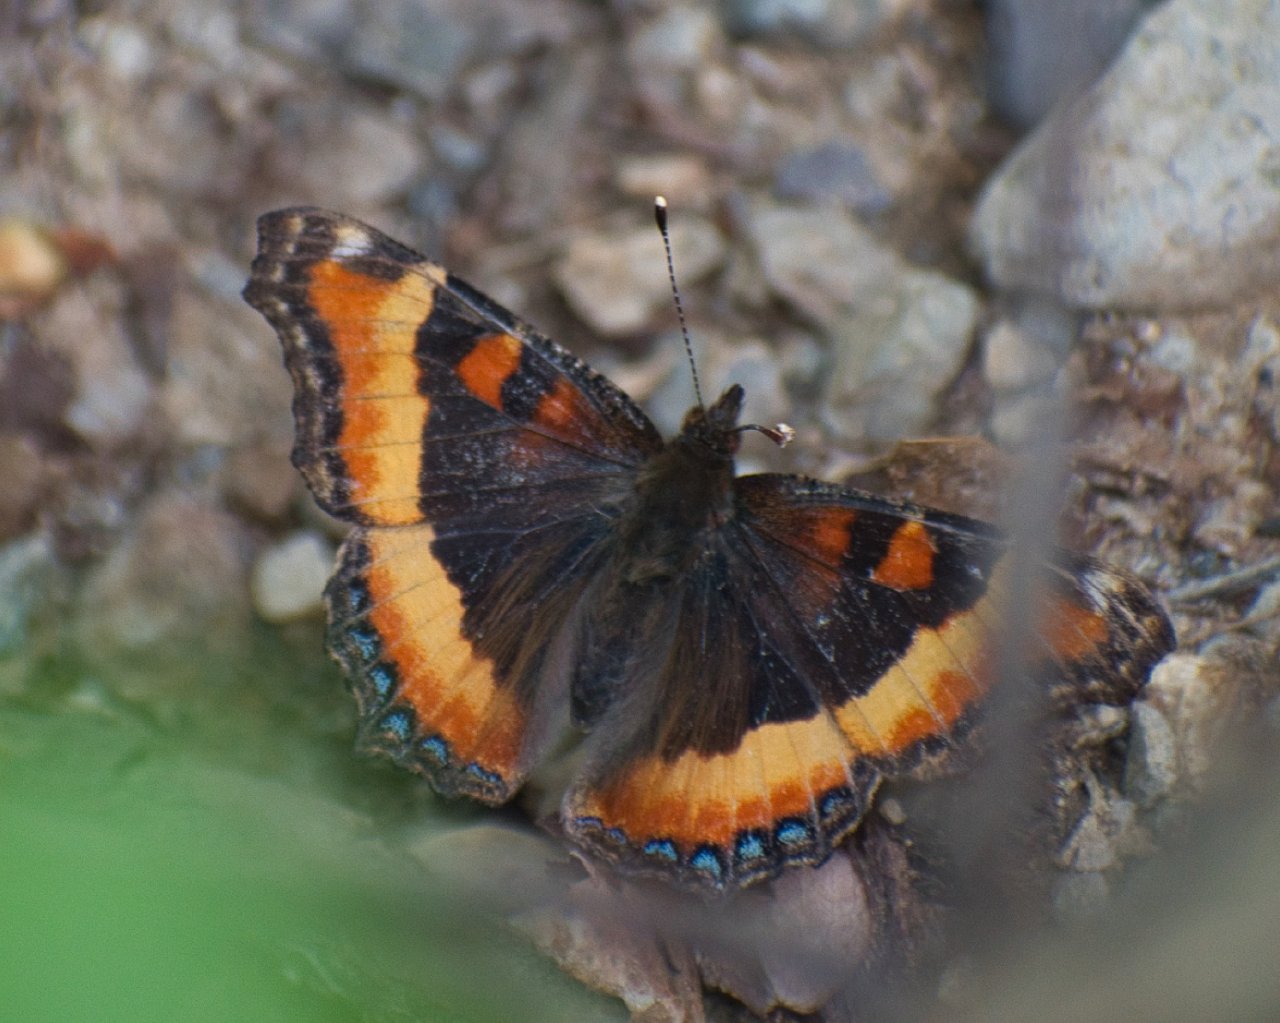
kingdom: Animalia
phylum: Arthropoda
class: Insecta
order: Lepidoptera
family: Nymphalidae
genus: Aglais
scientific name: Aglais milberti
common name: Milbert's Tortoiseshell
